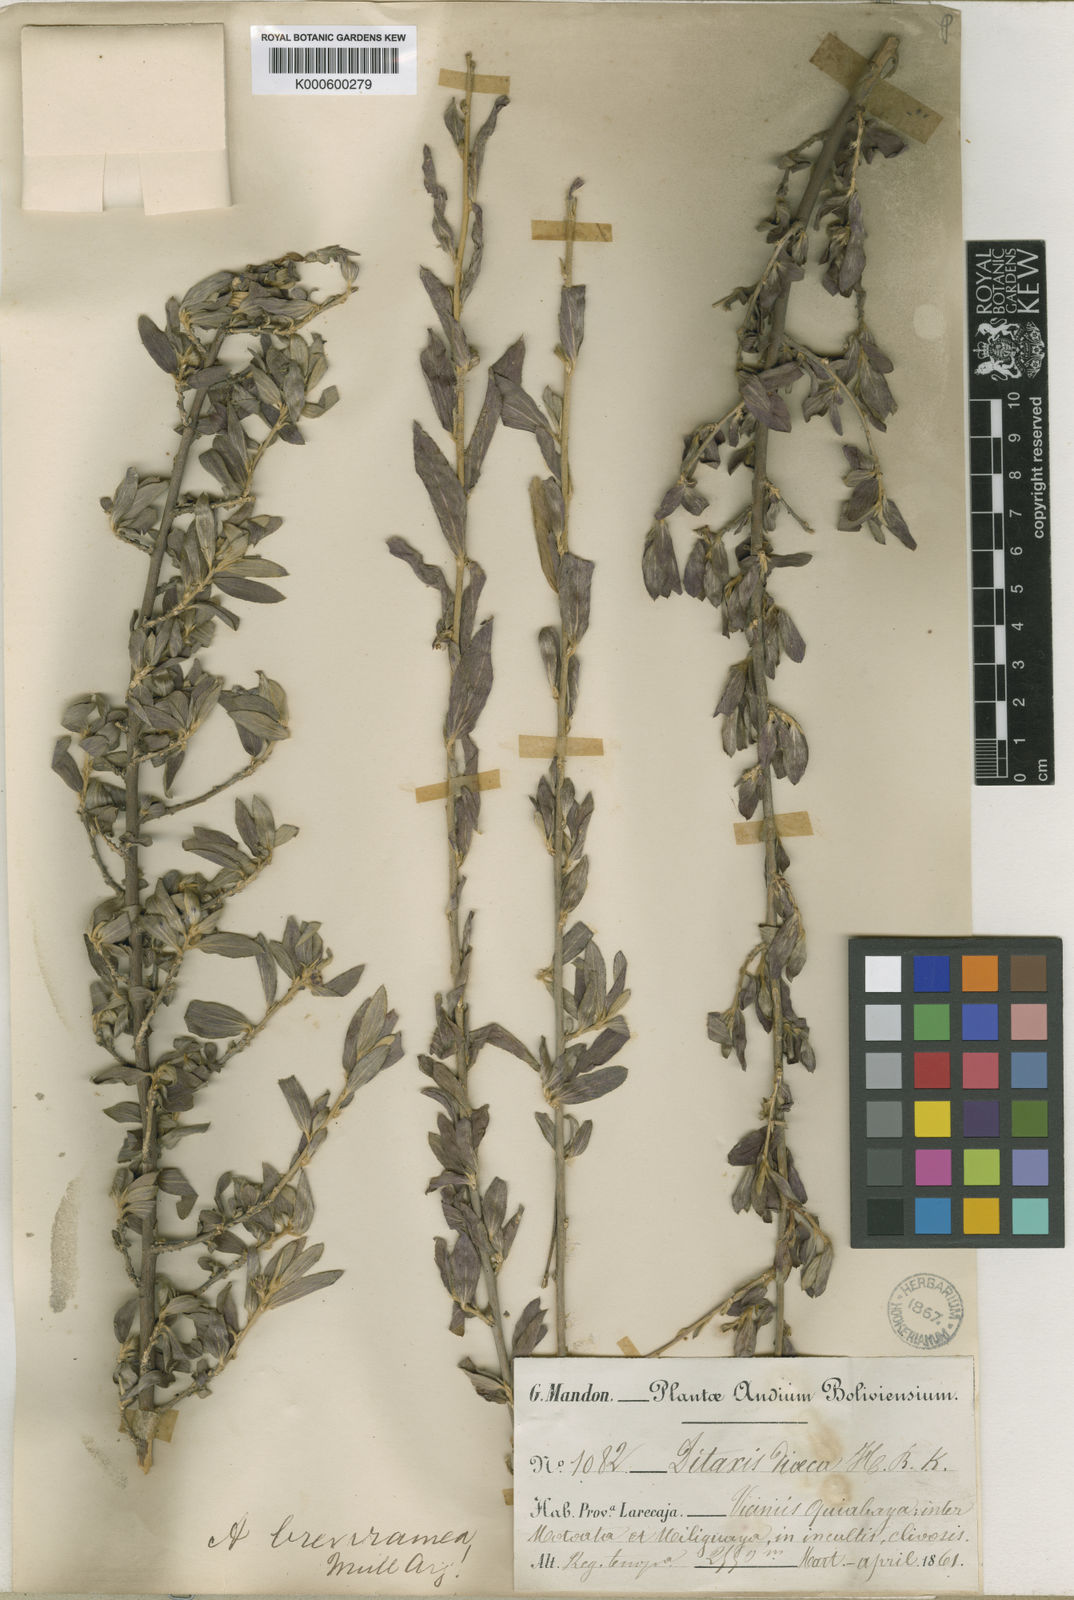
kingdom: Plantae
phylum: Tracheophyta
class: Magnoliopsida
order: Malpighiales
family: Euphorbiaceae
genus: Ditaxis
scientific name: Ditaxis
